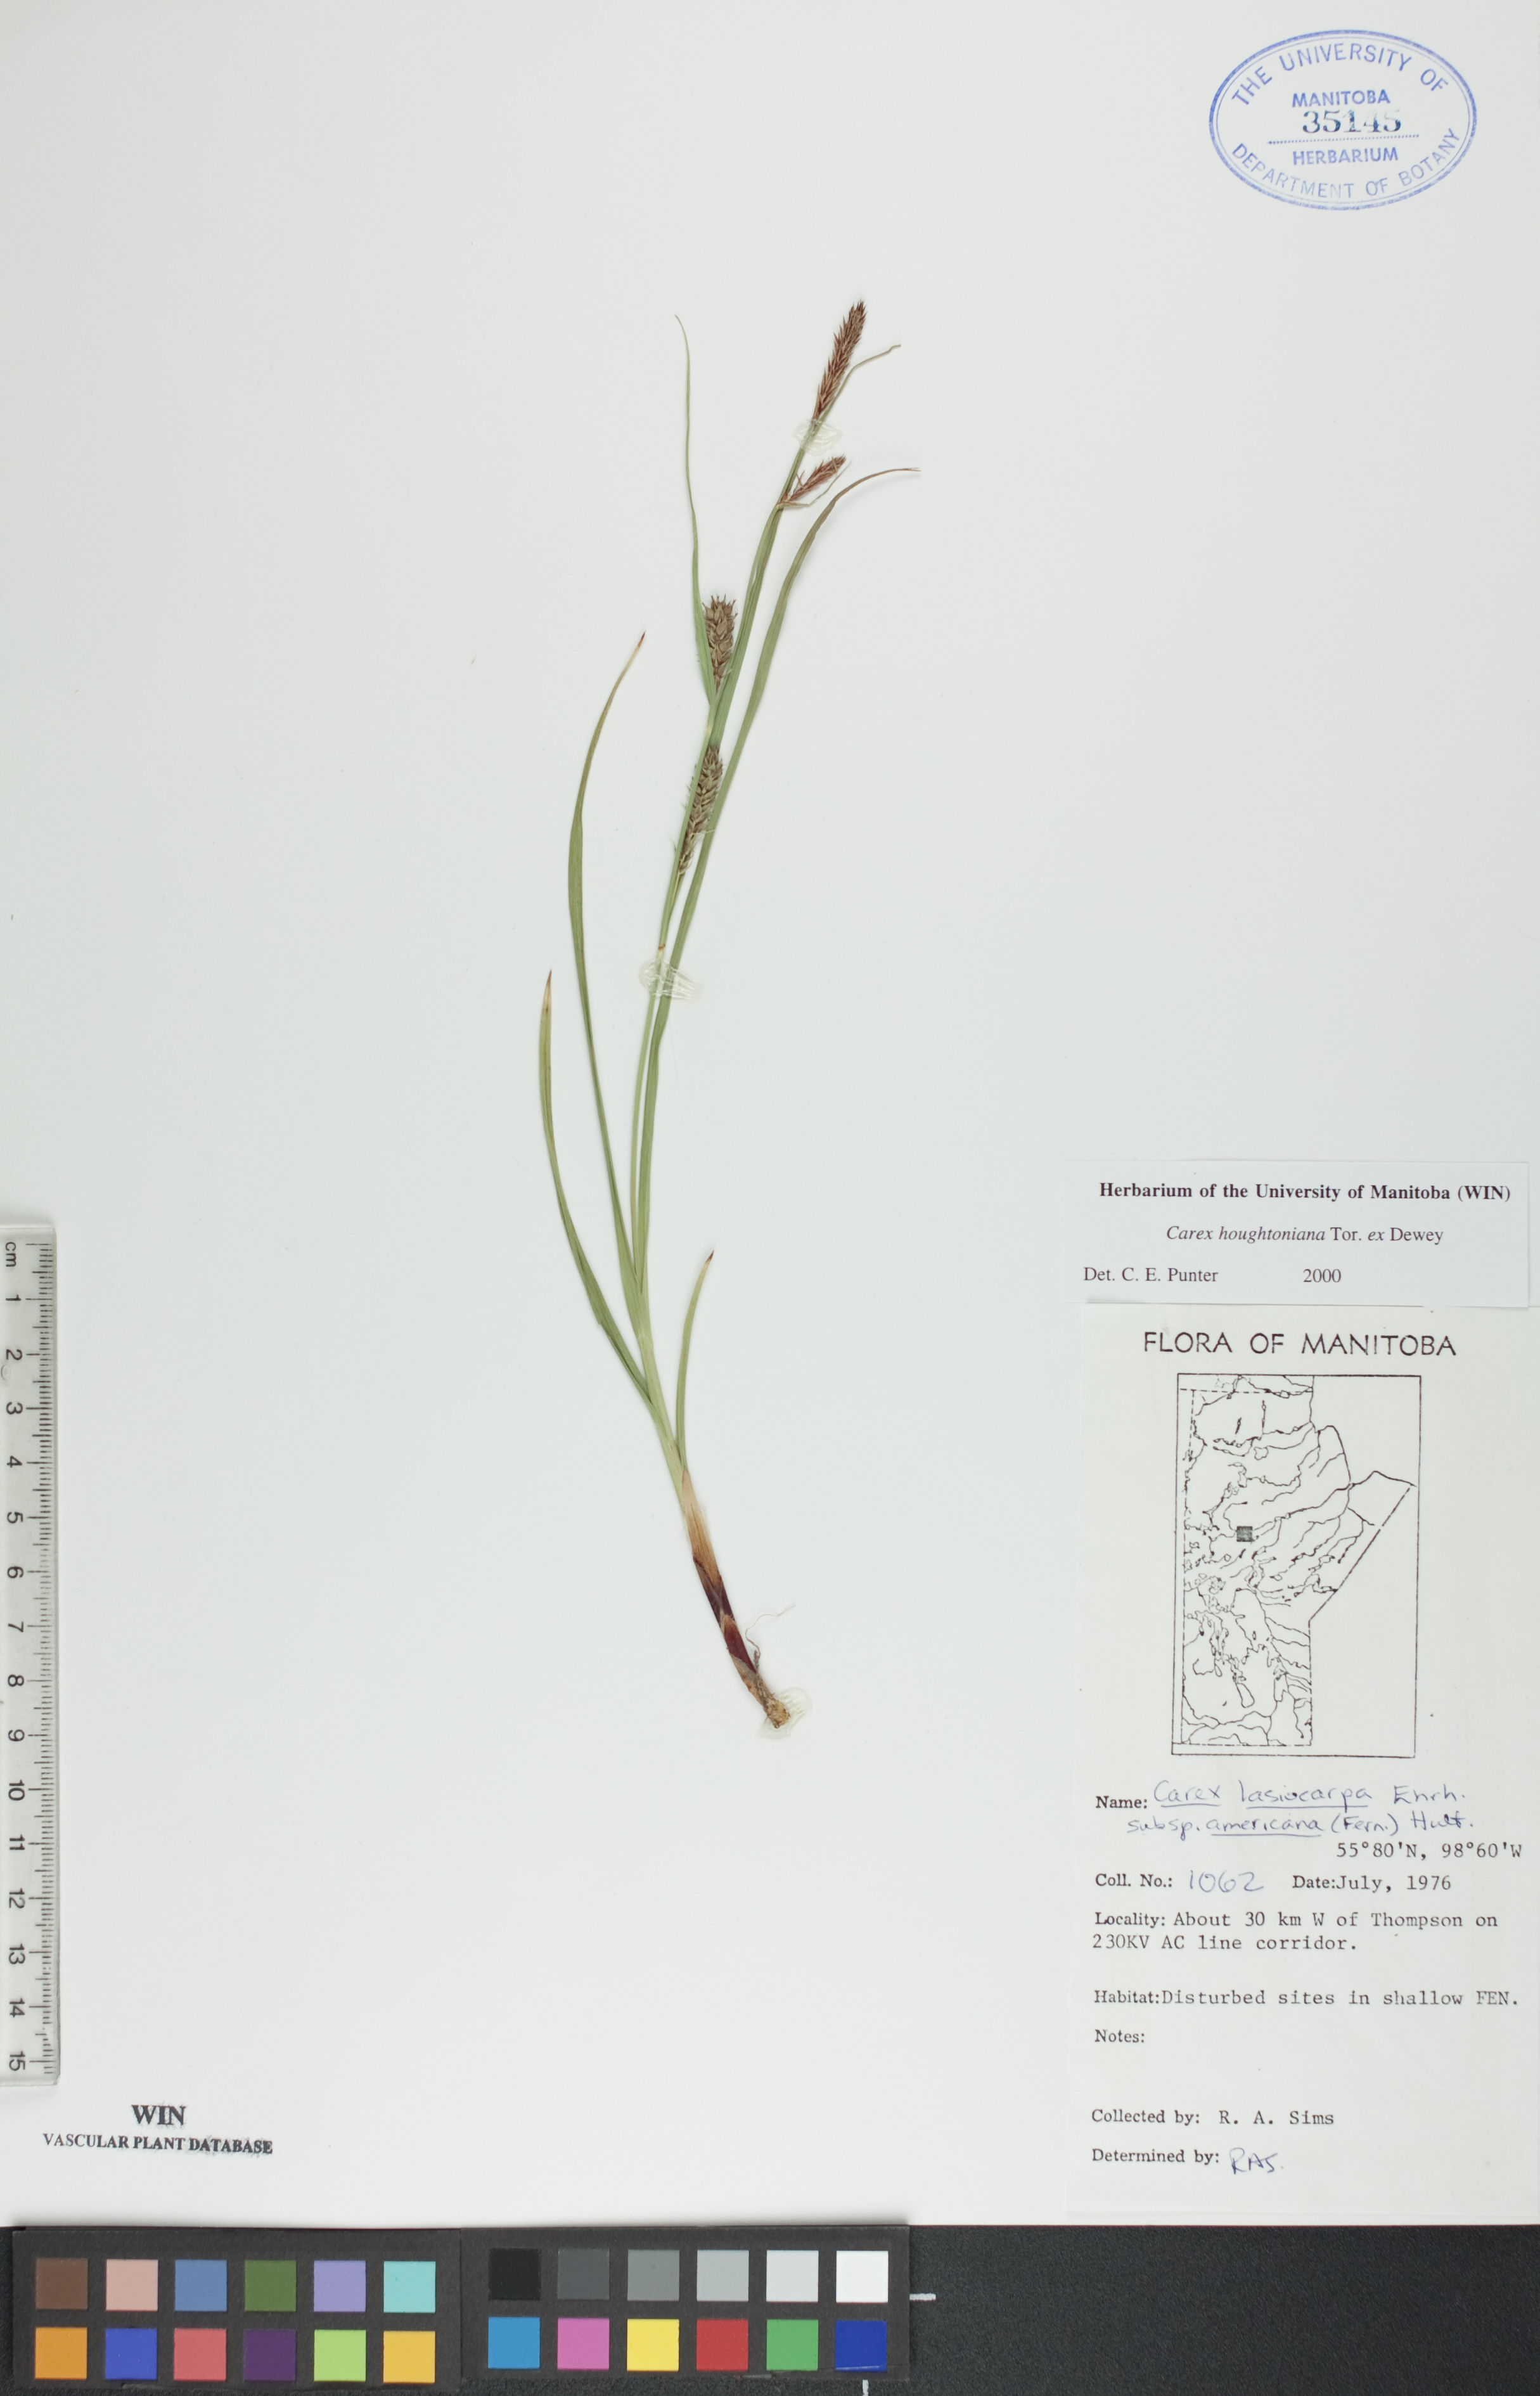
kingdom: Plantae
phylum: Tracheophyta
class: Liliopsida
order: Poales
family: Cyperaceae
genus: Carex
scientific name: Carex houghtoniana
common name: Houghton's sedge
